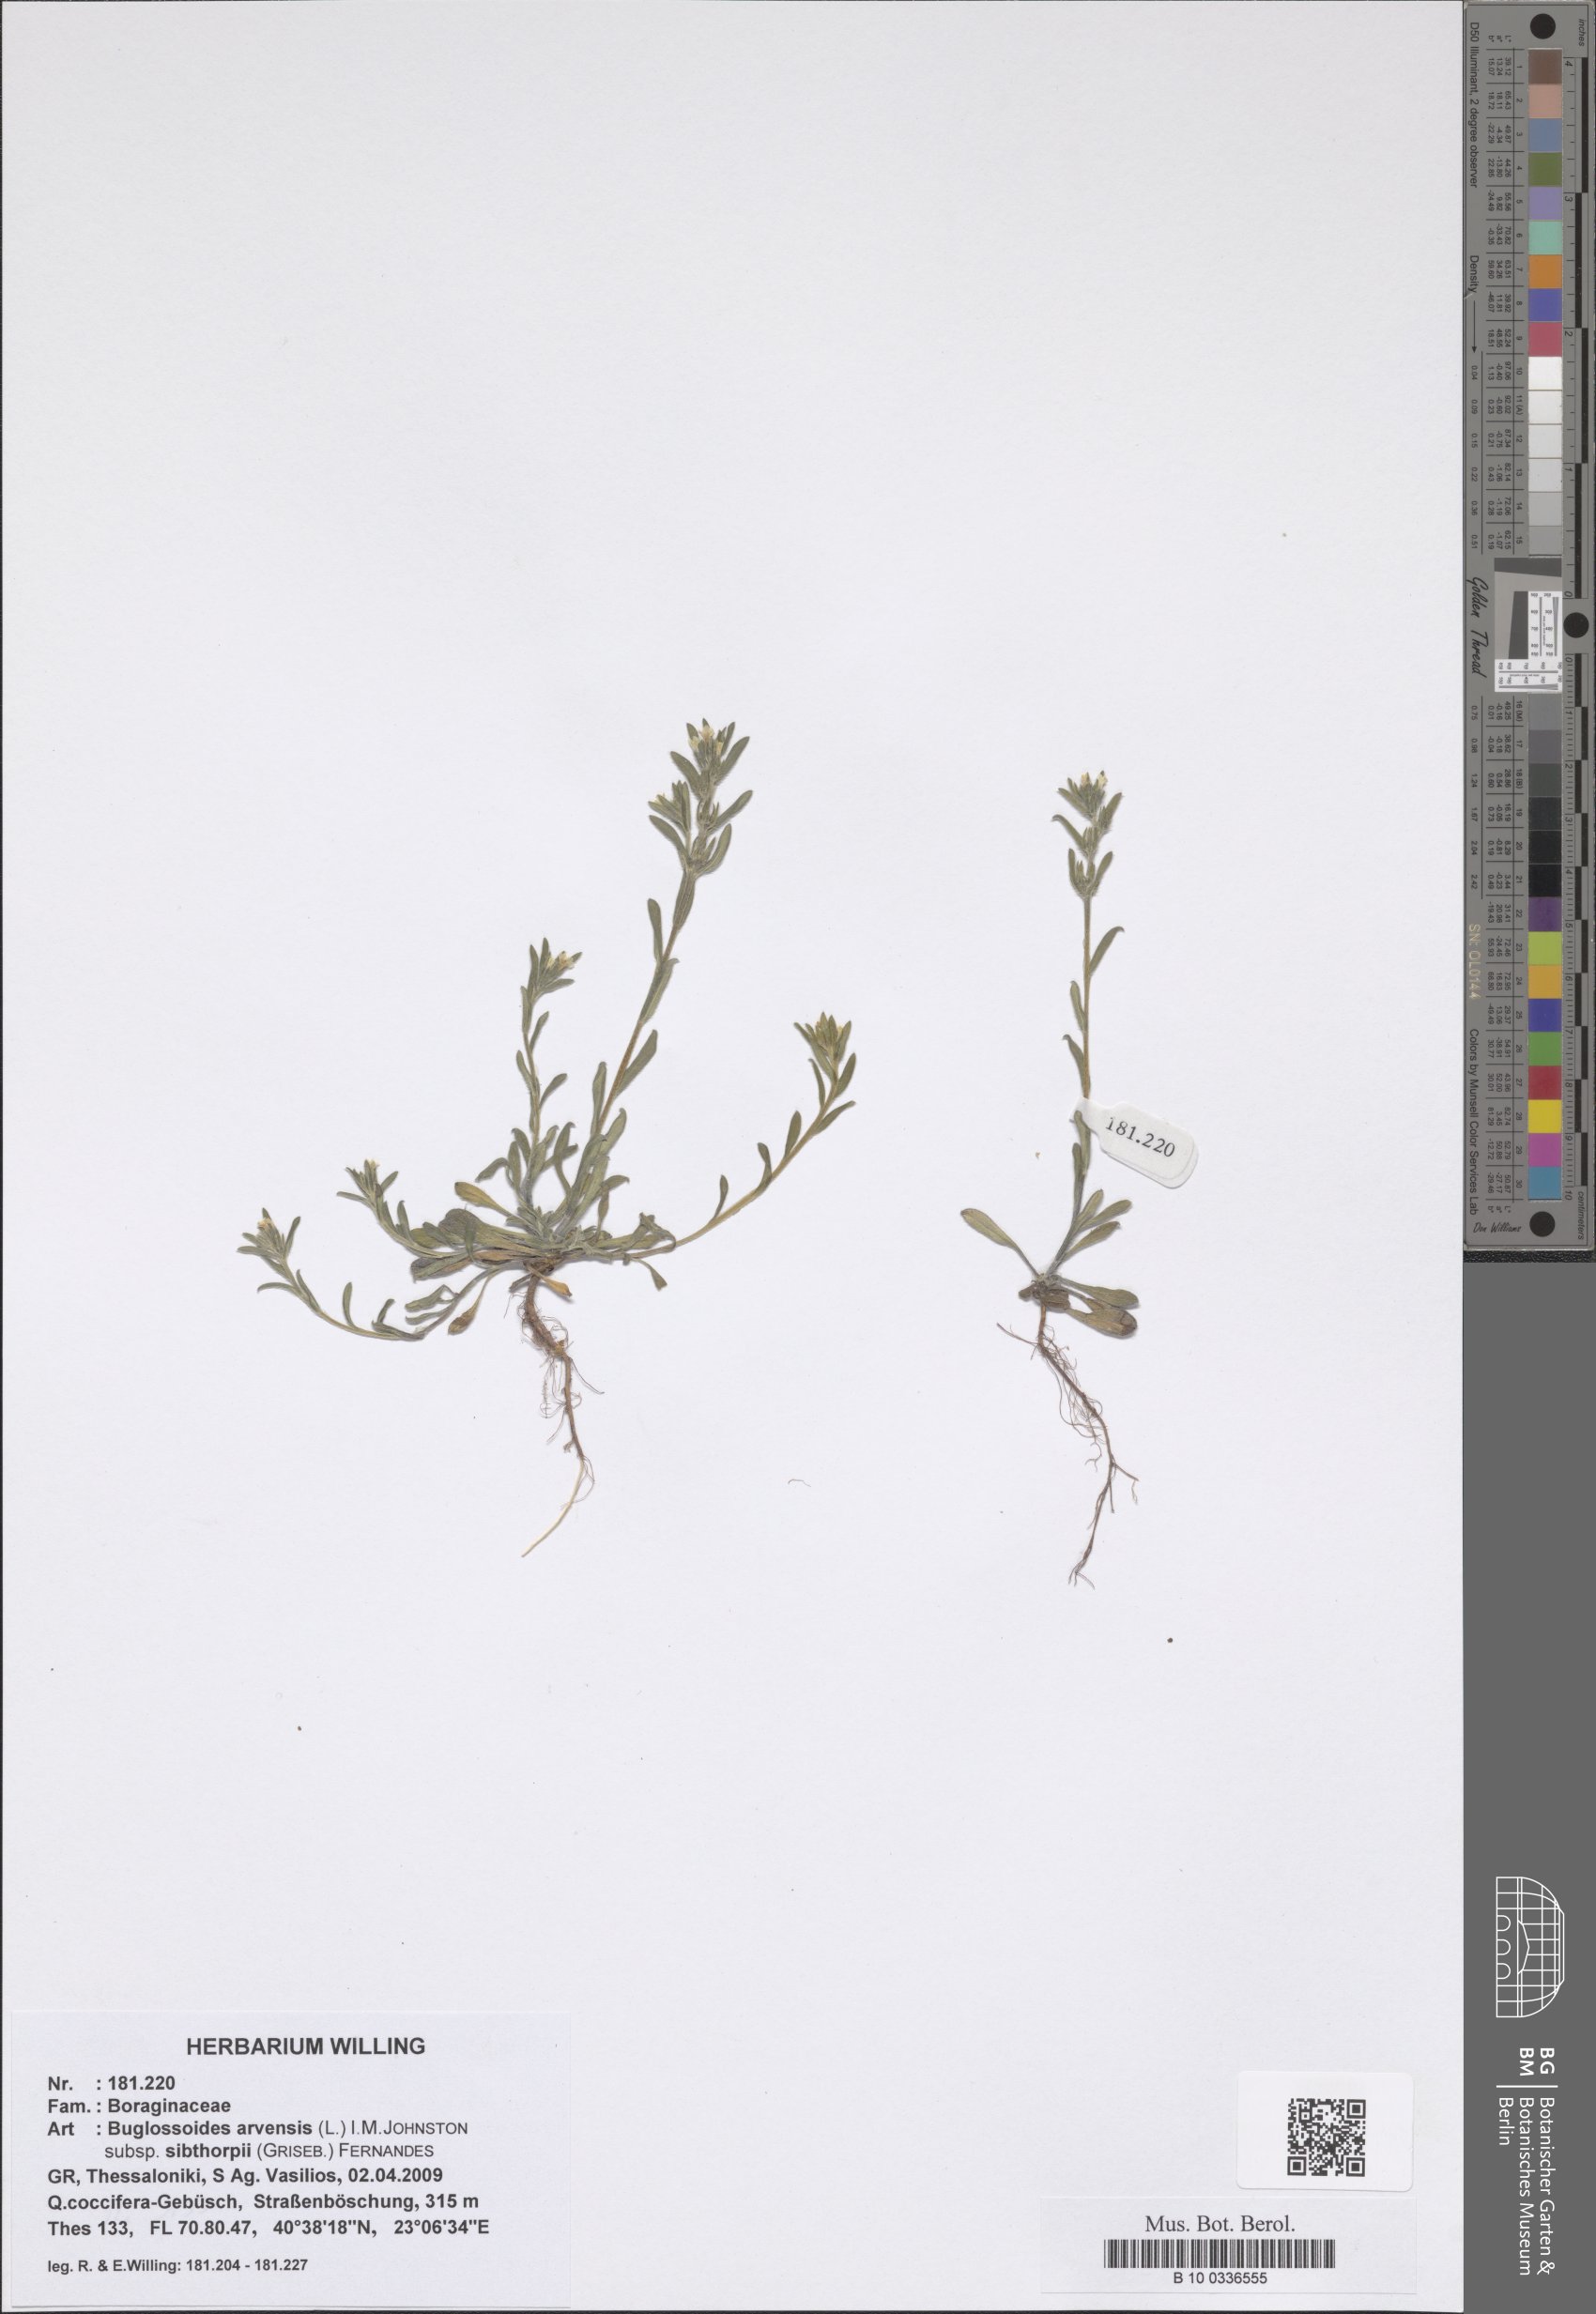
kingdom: Plantae
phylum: Tracheophyta
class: Magnoliopsida
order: Boraginales
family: Boraginaceae
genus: Buglossoides
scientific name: Buglossoides arvensis
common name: Corn gromwell
